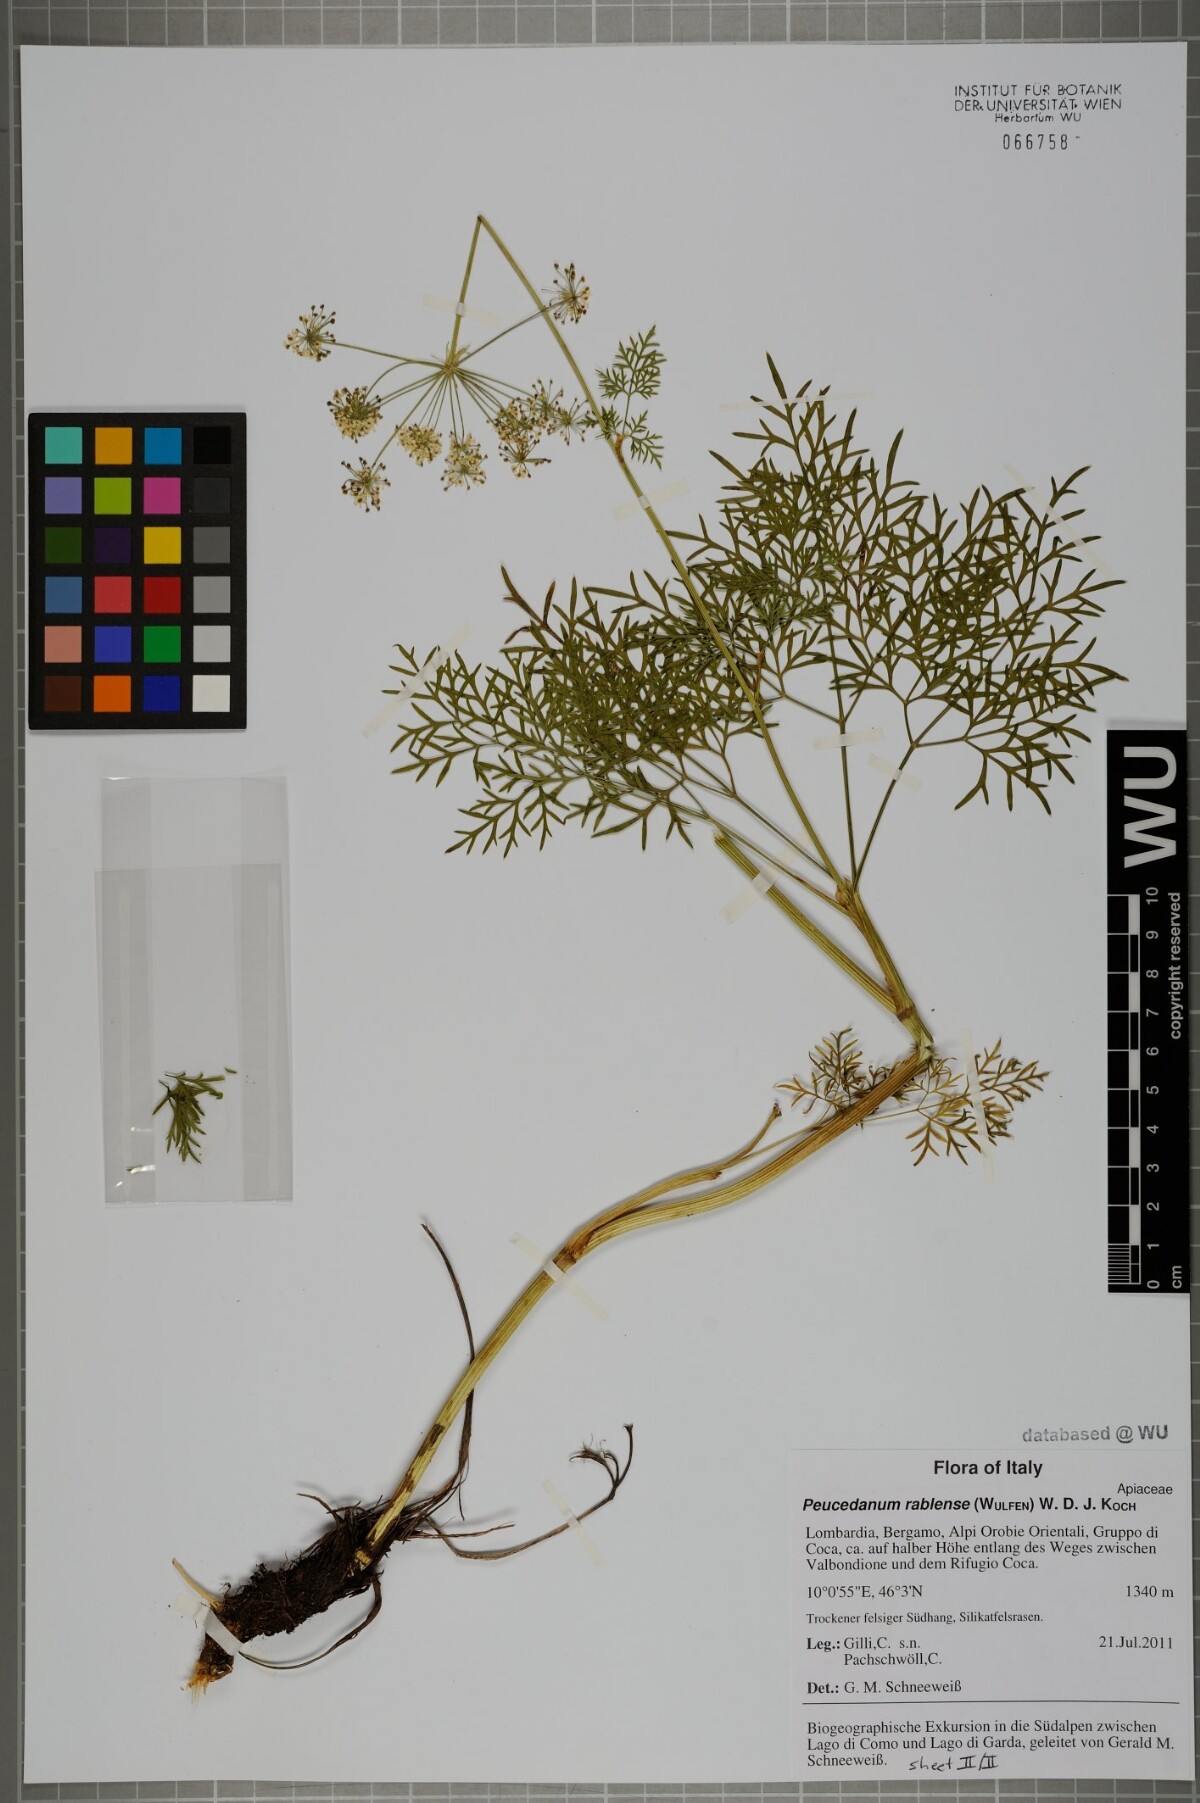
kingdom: Plantae
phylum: Tracheophyta
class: Magnoliopsida
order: Apiales
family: Apiaceae
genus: Peucedanum
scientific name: Peucedanum rablense
